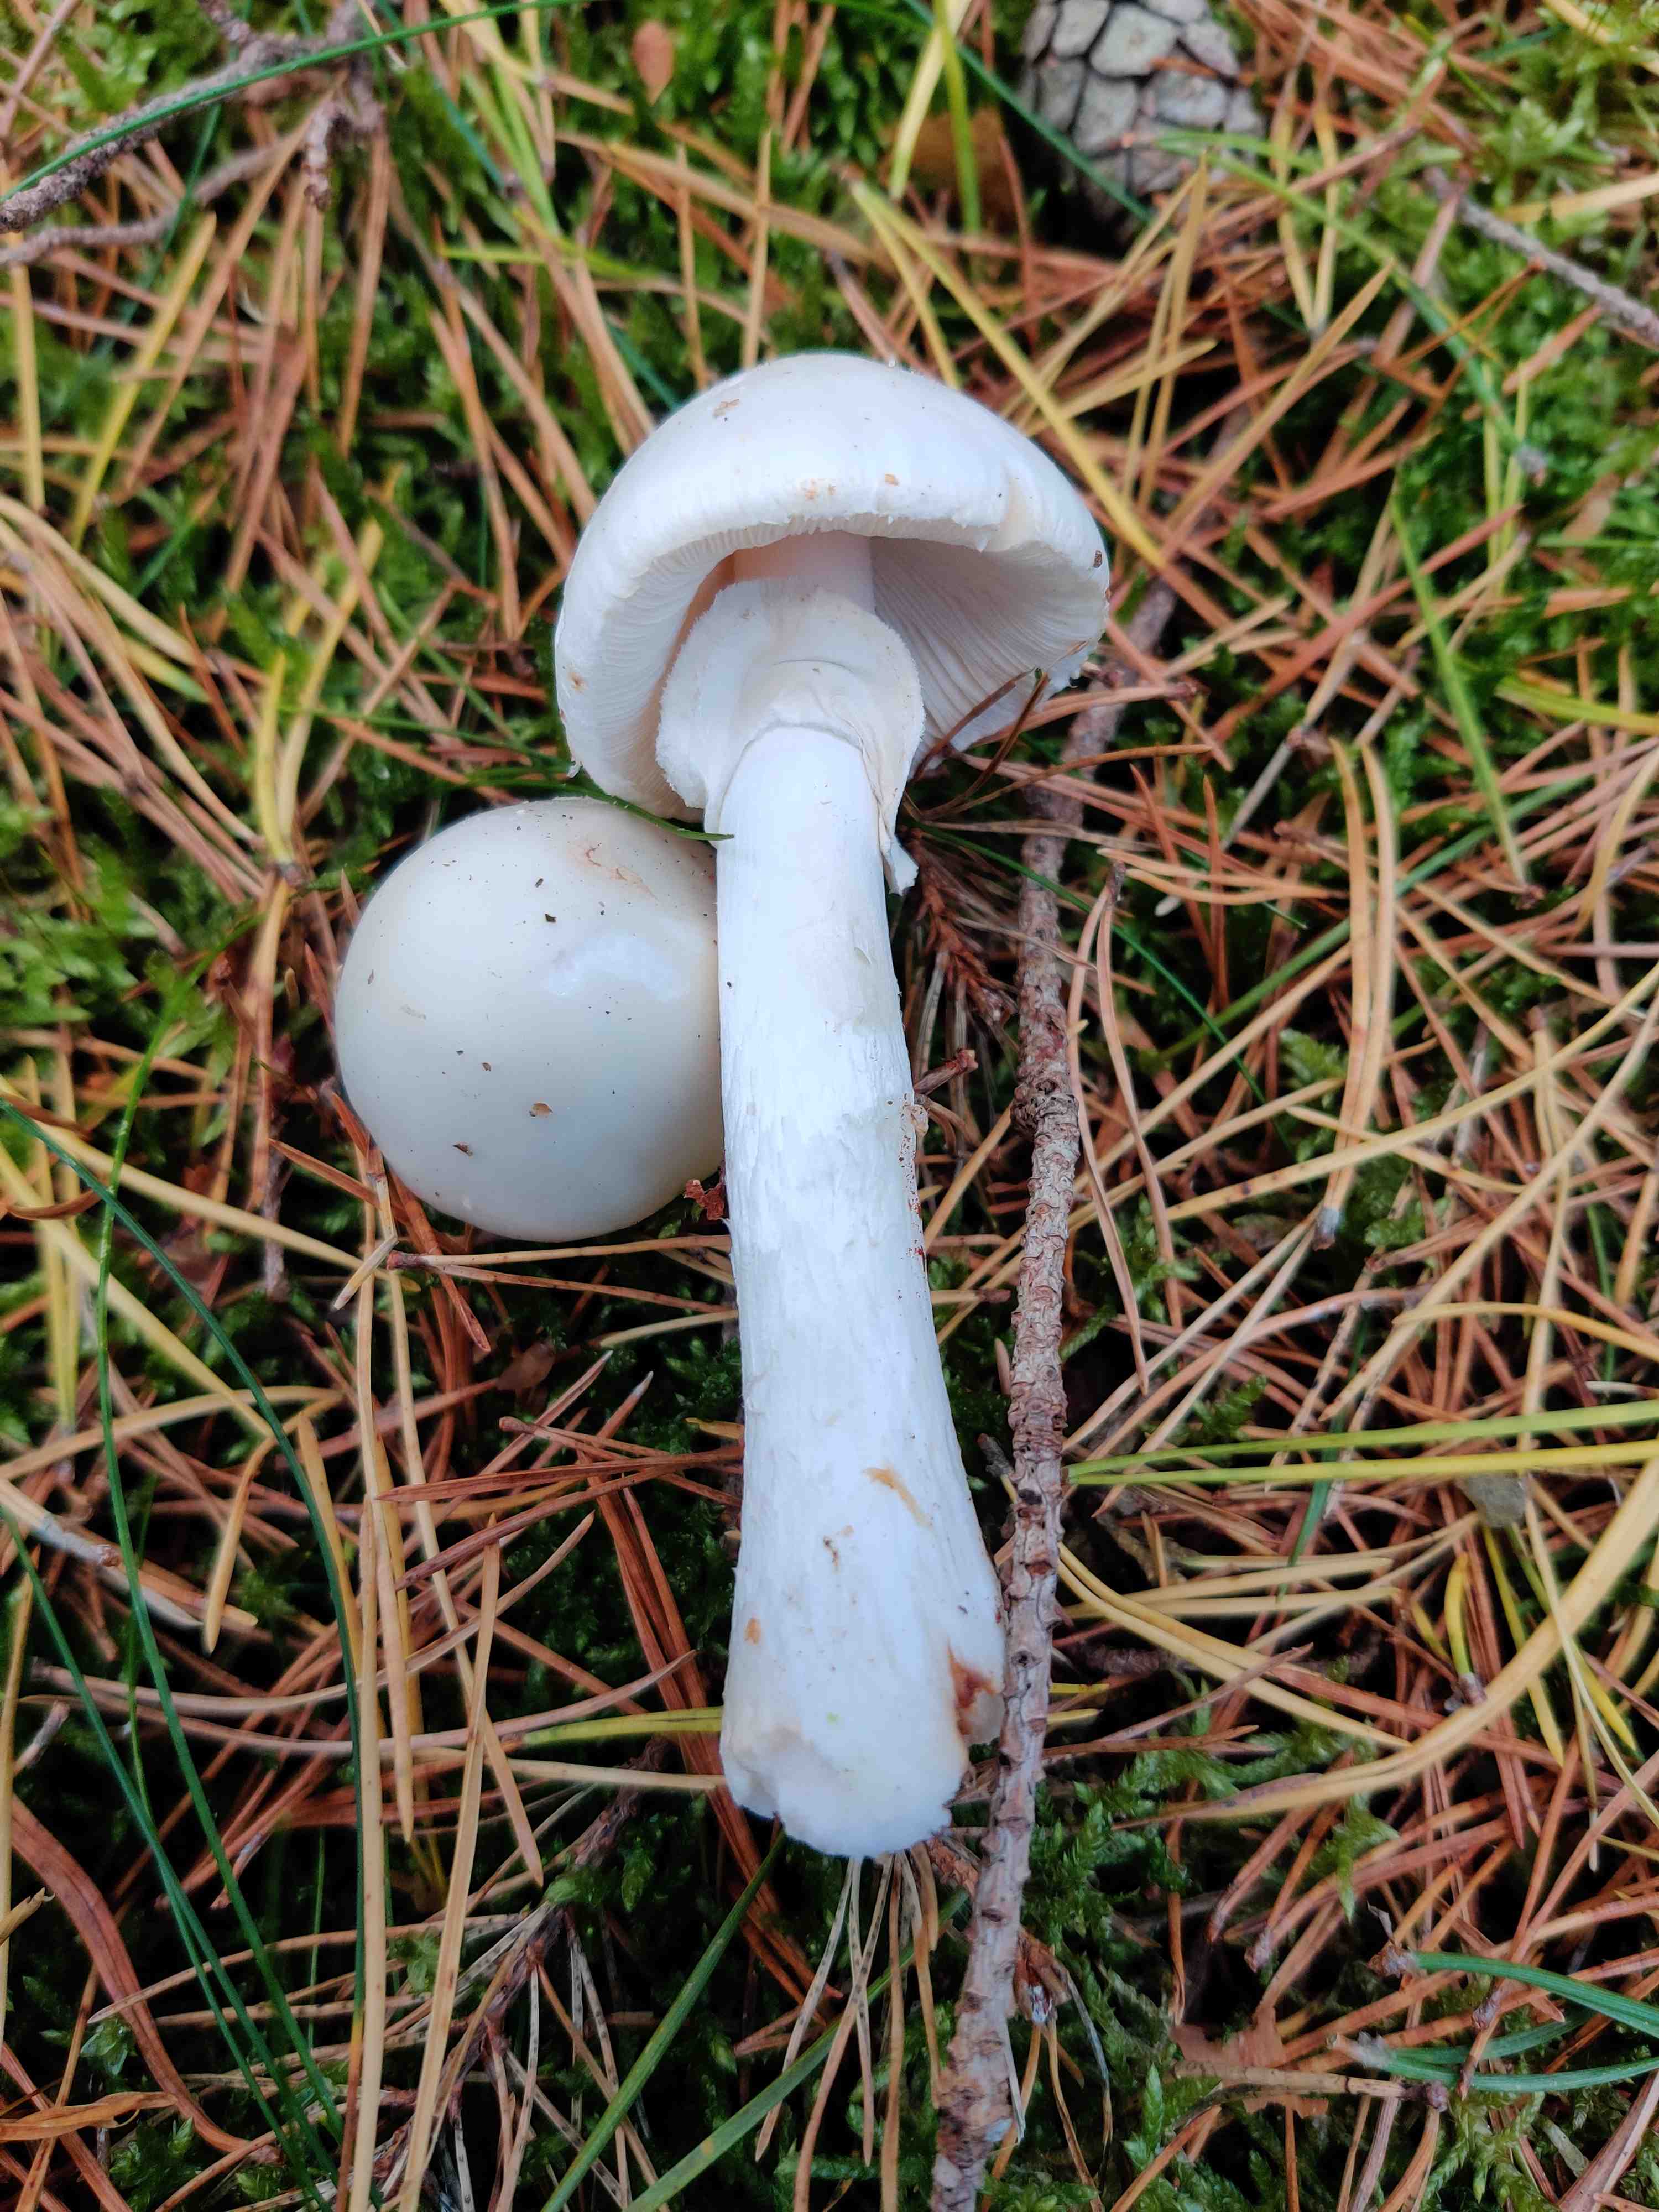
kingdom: Fungi
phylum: Basidiomycota
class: Agaricomycetes
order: Agaricales
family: Amanitaceae
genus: Amanita
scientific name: Amanita citrina
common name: kugleknoldet fluesvamp
